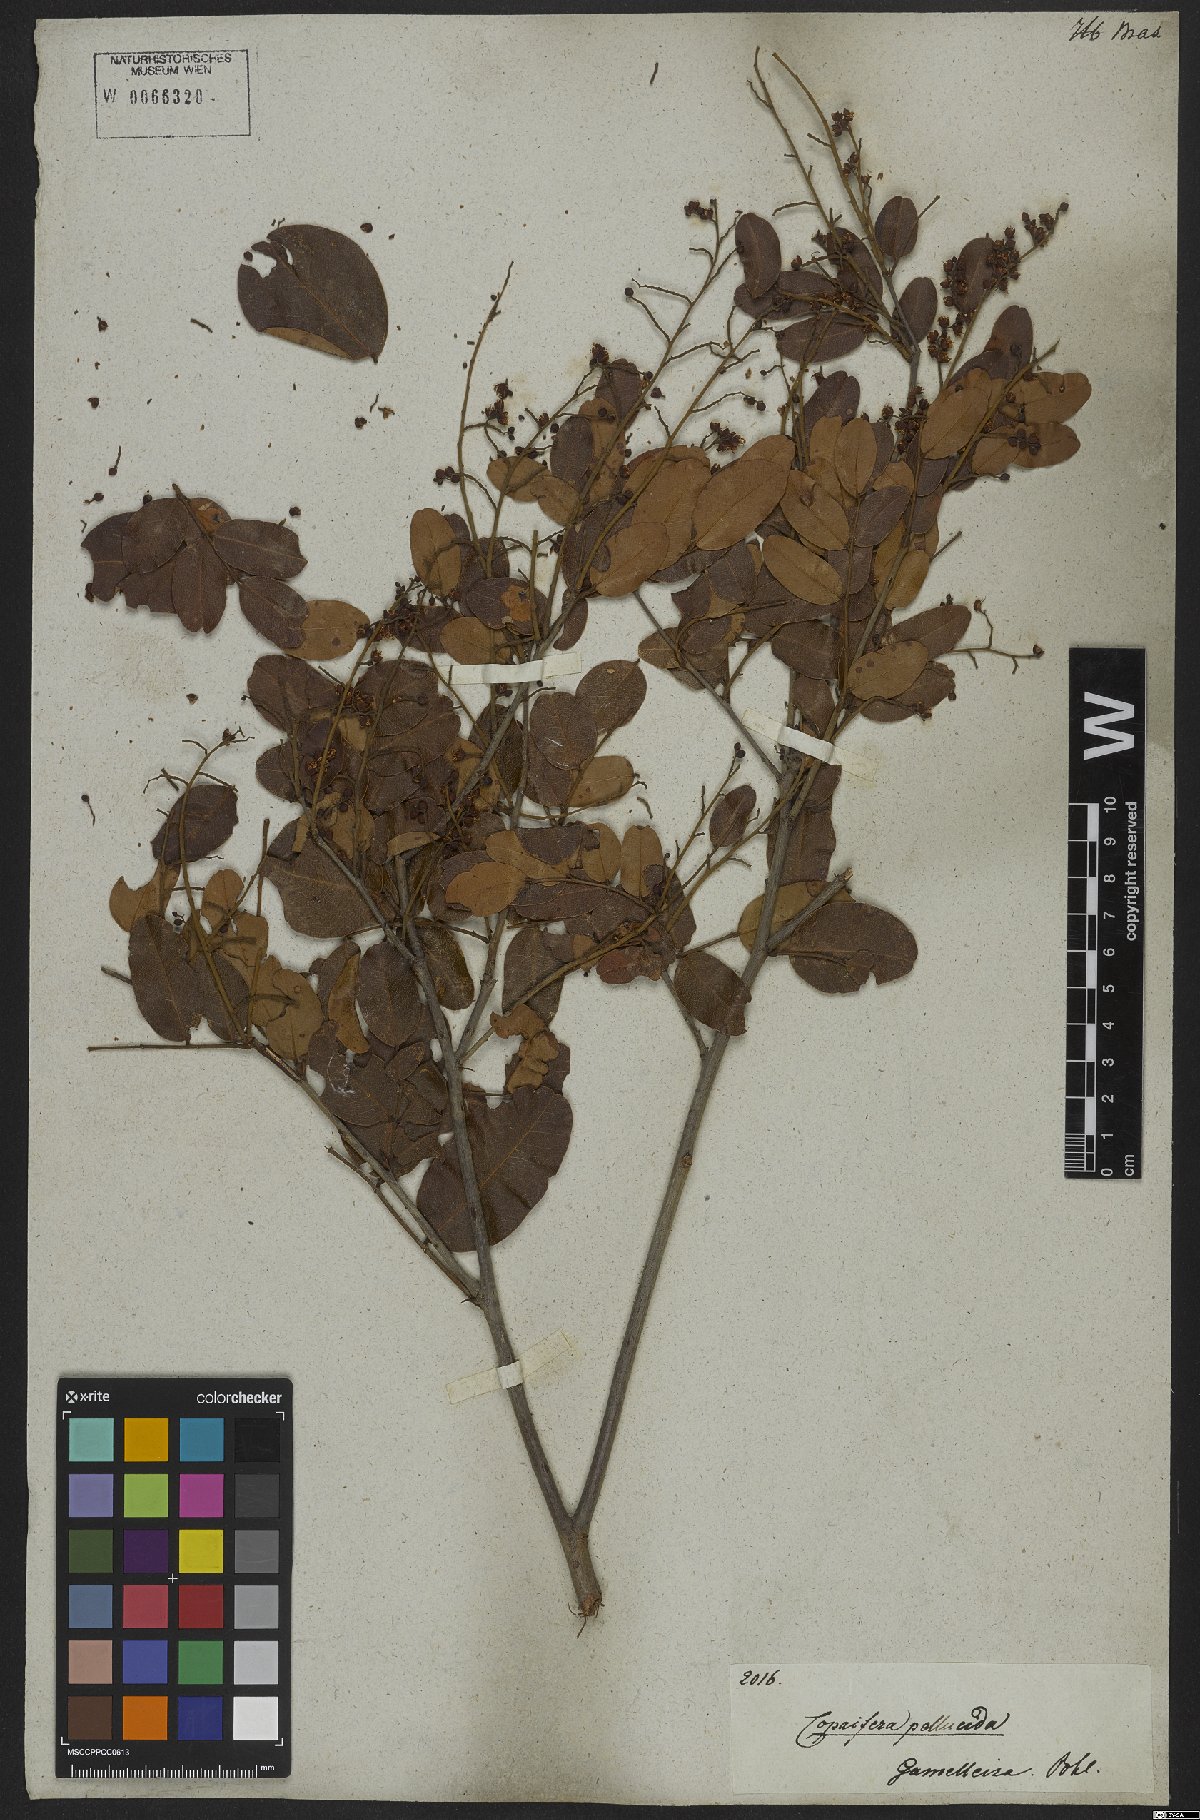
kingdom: Plantae
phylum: Tracheophyta
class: Magnoliopsida
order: Fabales
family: Fabaceae
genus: Copaifera
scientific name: Copaifera
